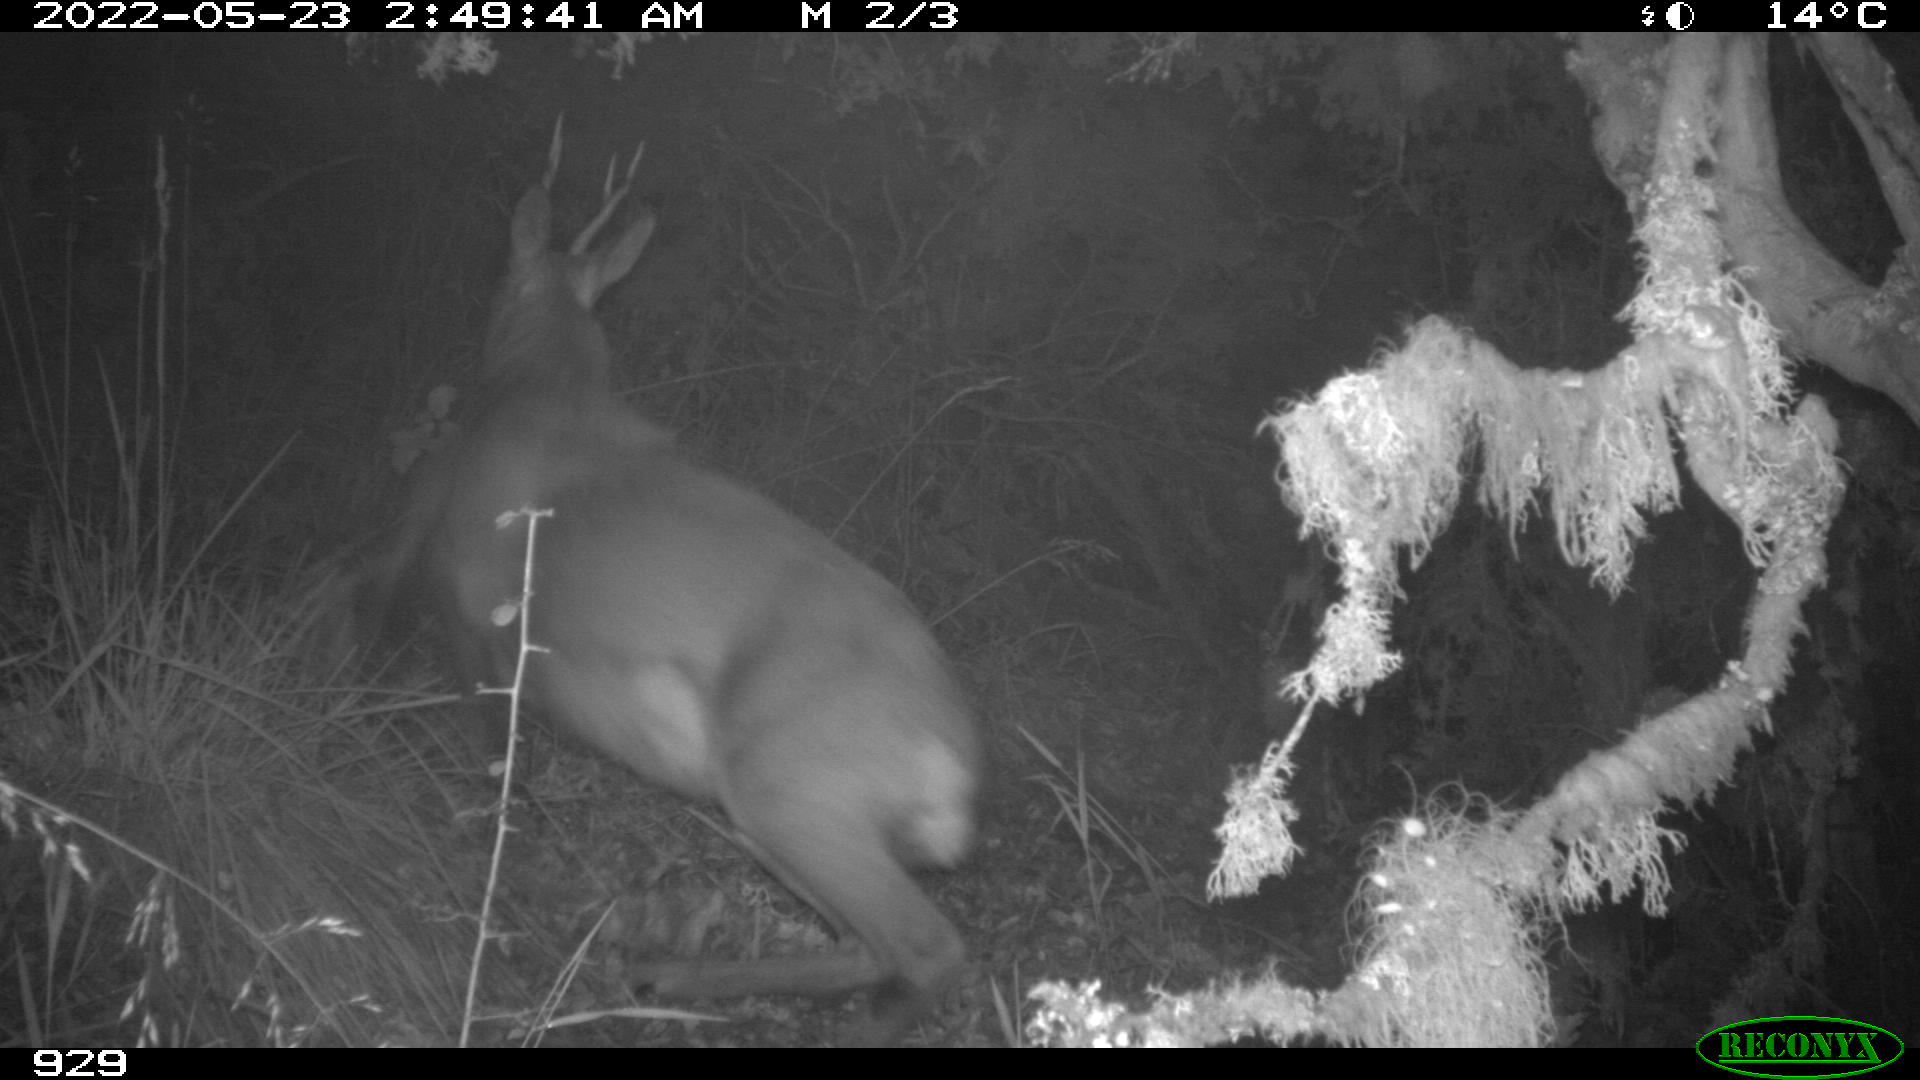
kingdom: Animalia
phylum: Chordata
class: Mammalia
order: Artiodactyla
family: Cervidae
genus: Capreolus
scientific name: Capreolus capreolus
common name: Western roe deer
